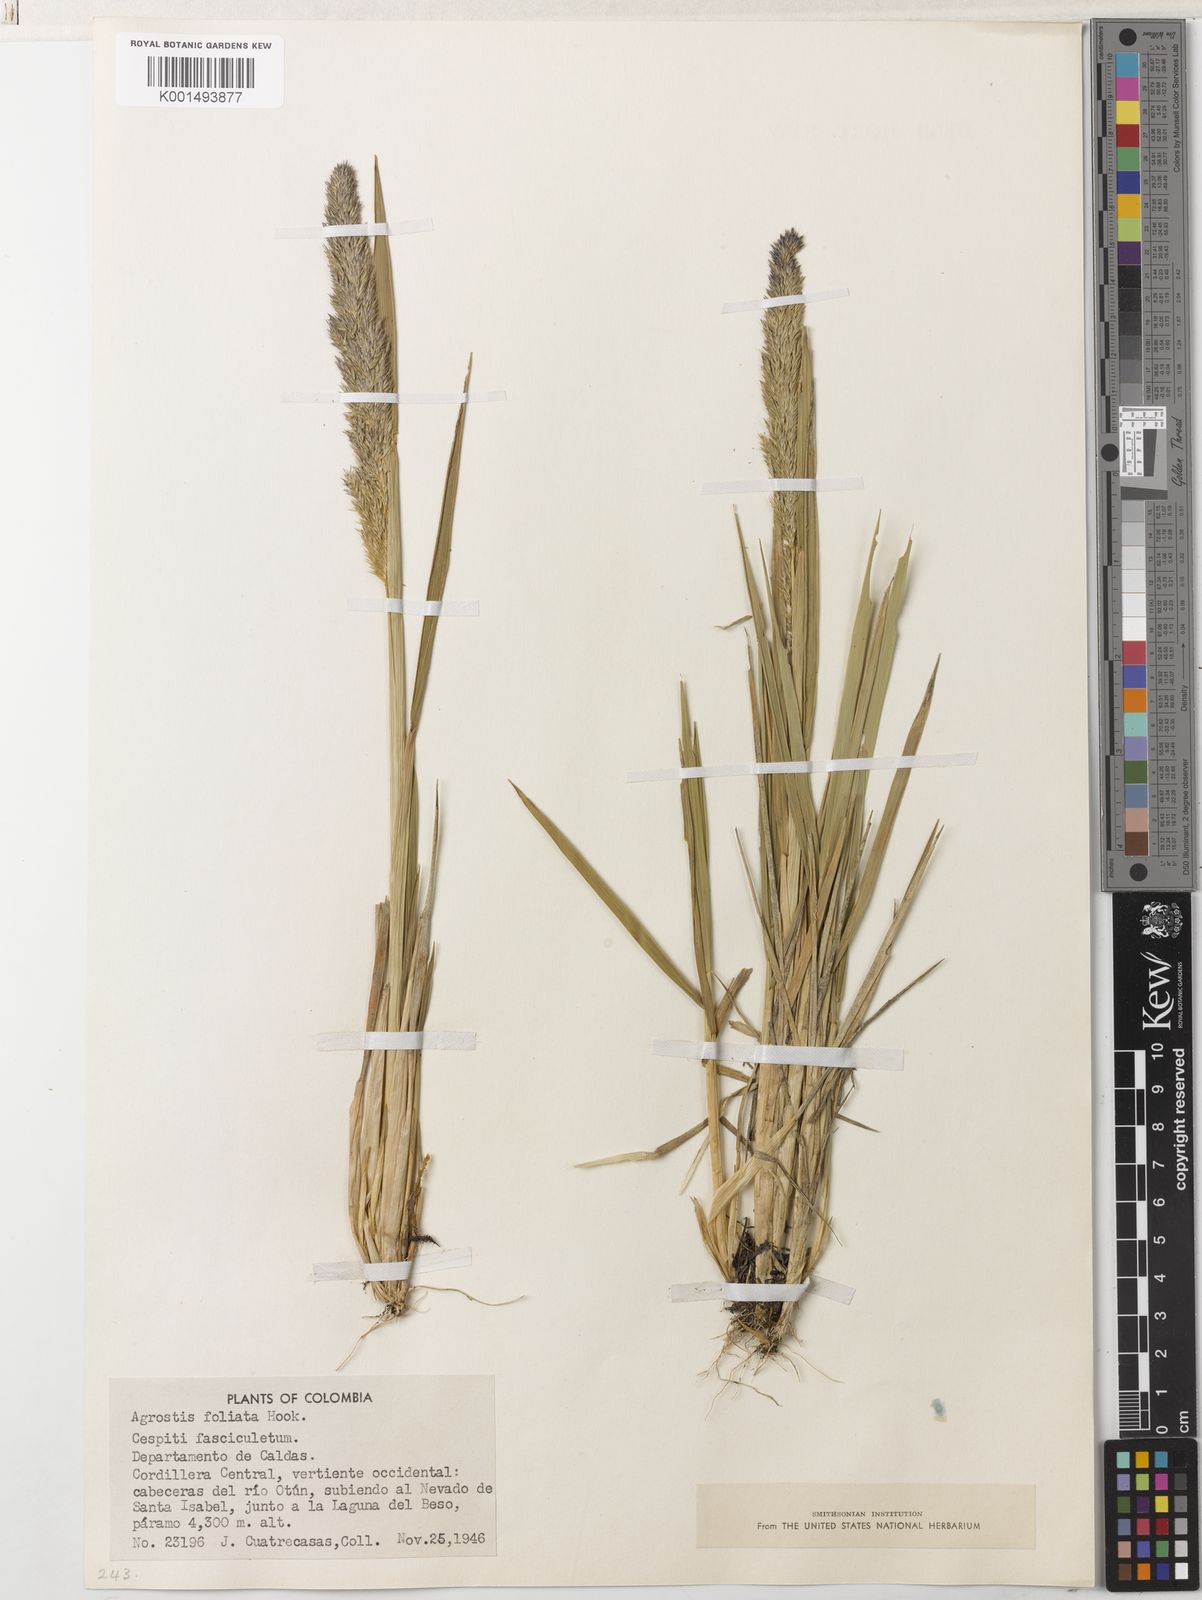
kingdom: Plantae
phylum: Tracheophyta
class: Liliopsida
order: Poales
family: Poaceae
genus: Agrostis
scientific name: Agrostis foliata
